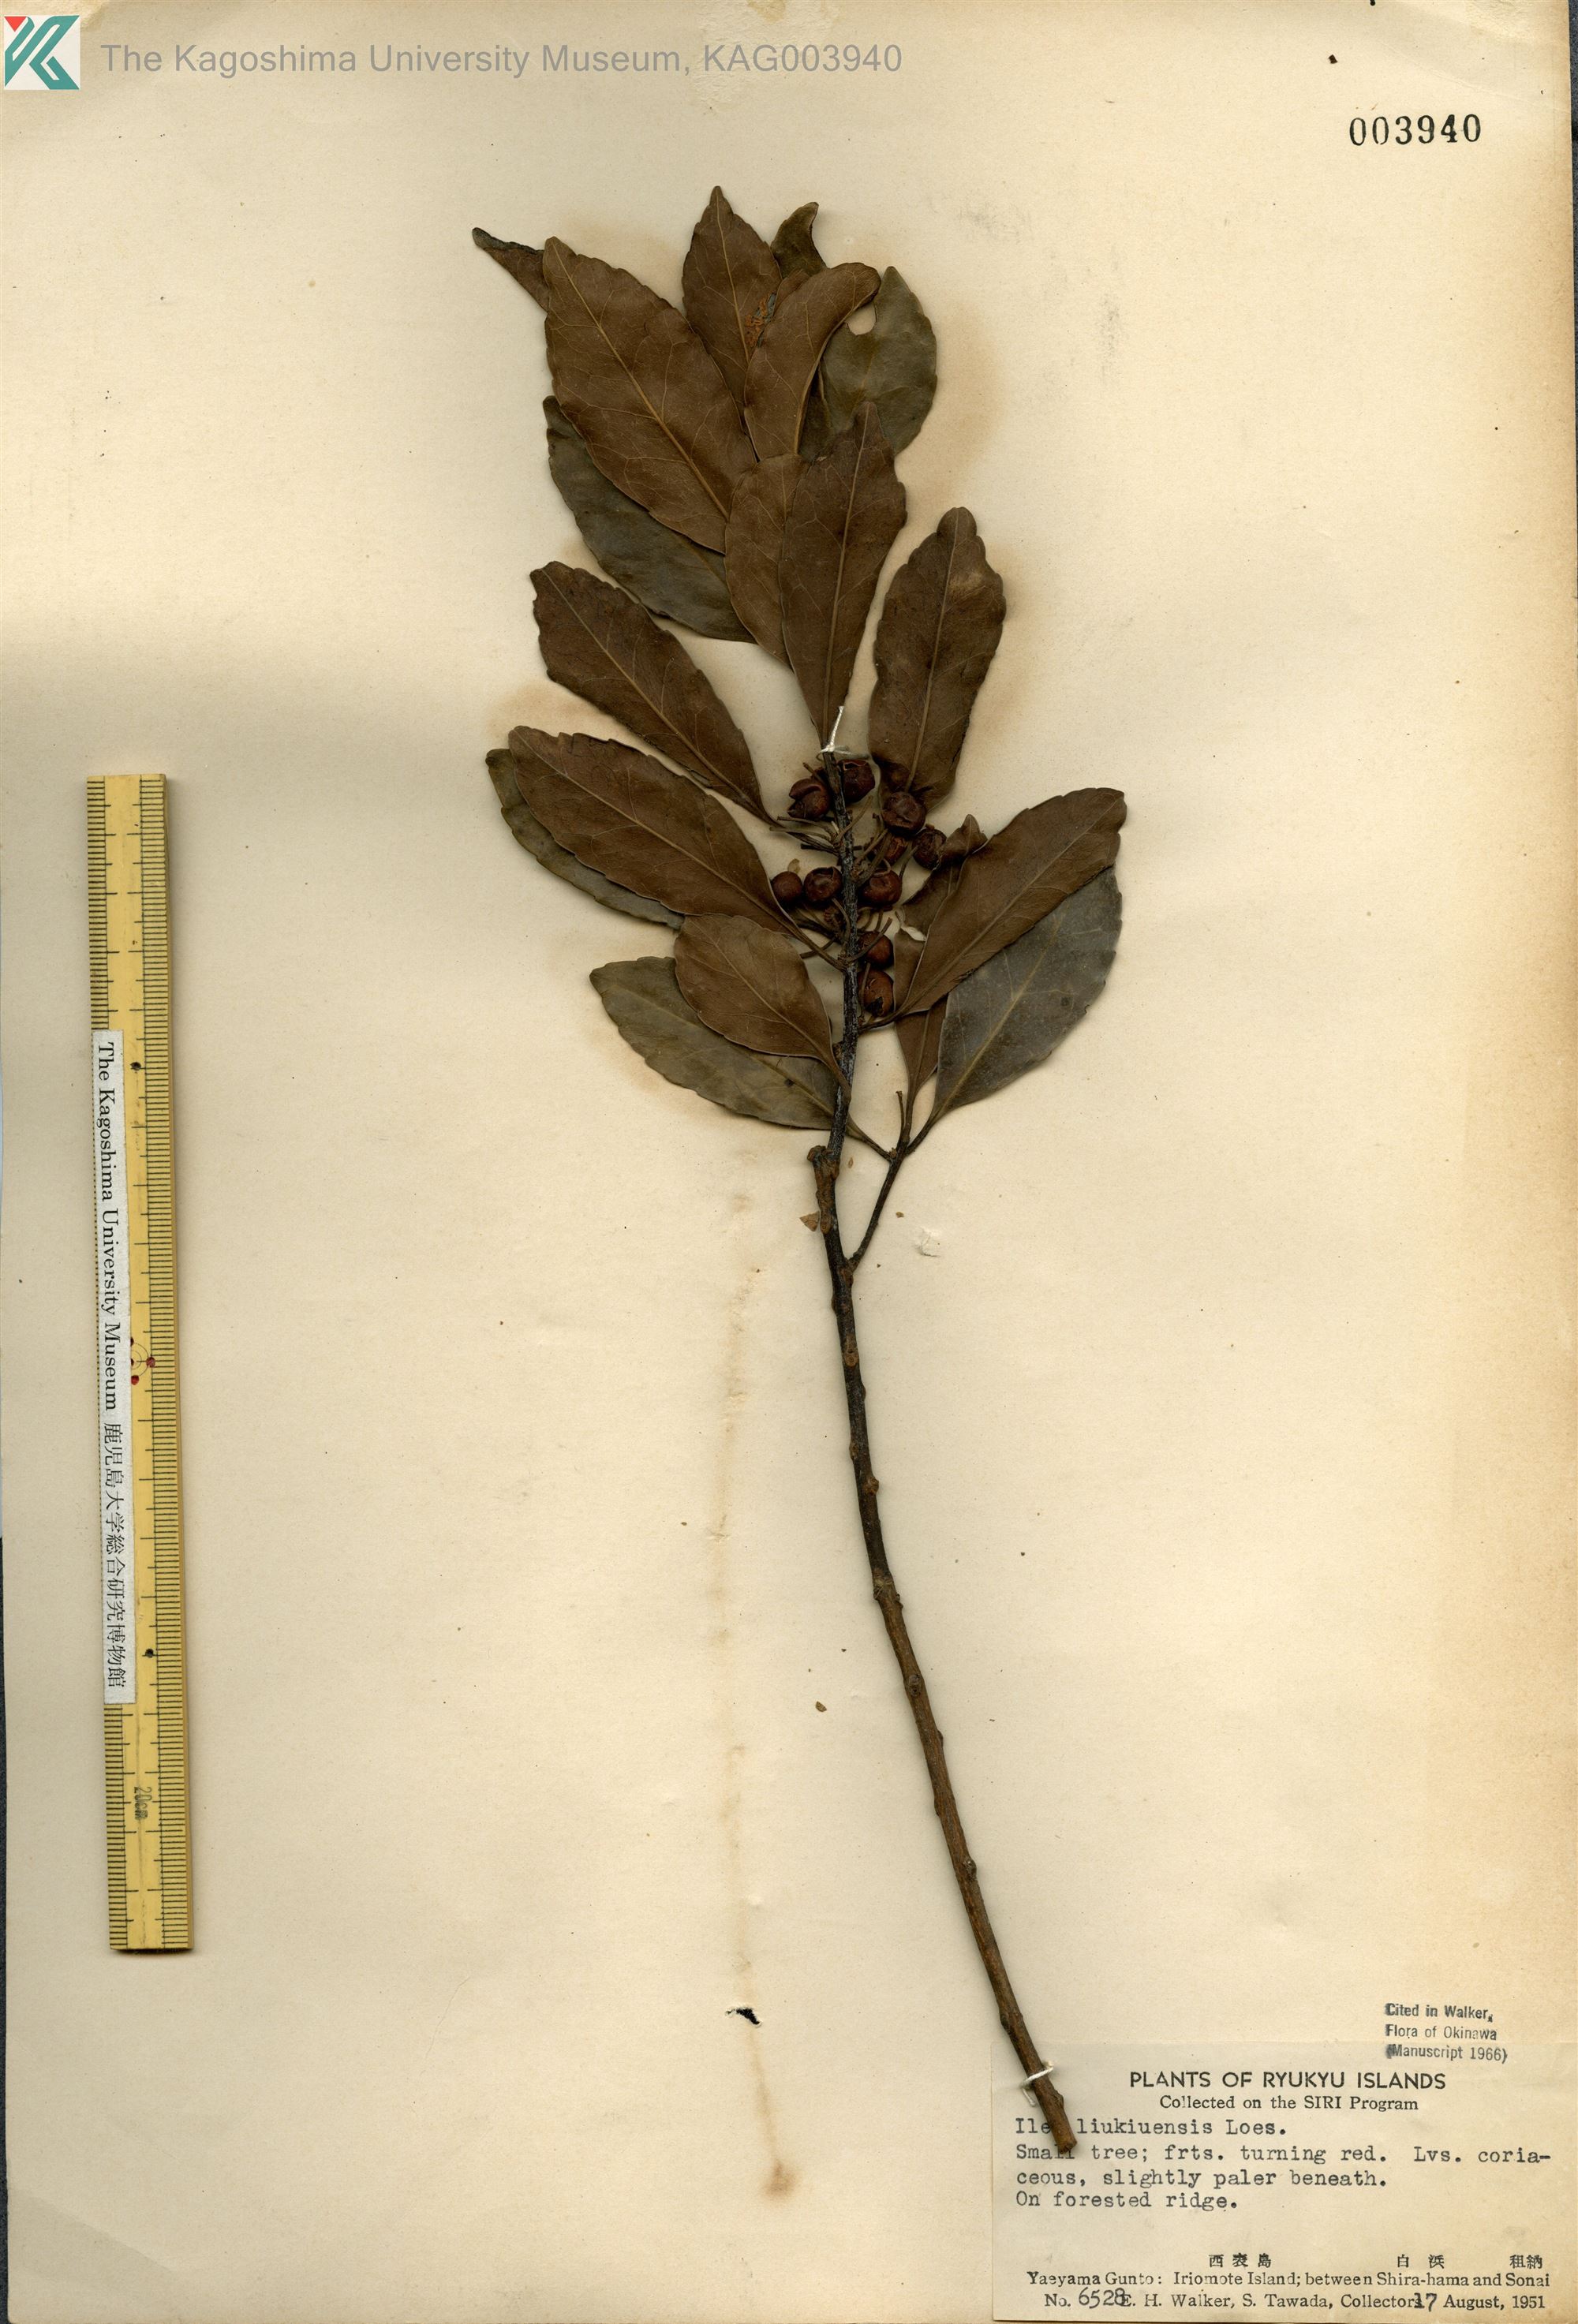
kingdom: Plantae
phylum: Tracheophyta
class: Magnoliopsida
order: Aquifoliales
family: Aquifoliaceae
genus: Ilex
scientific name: Ilex liukiuensis
